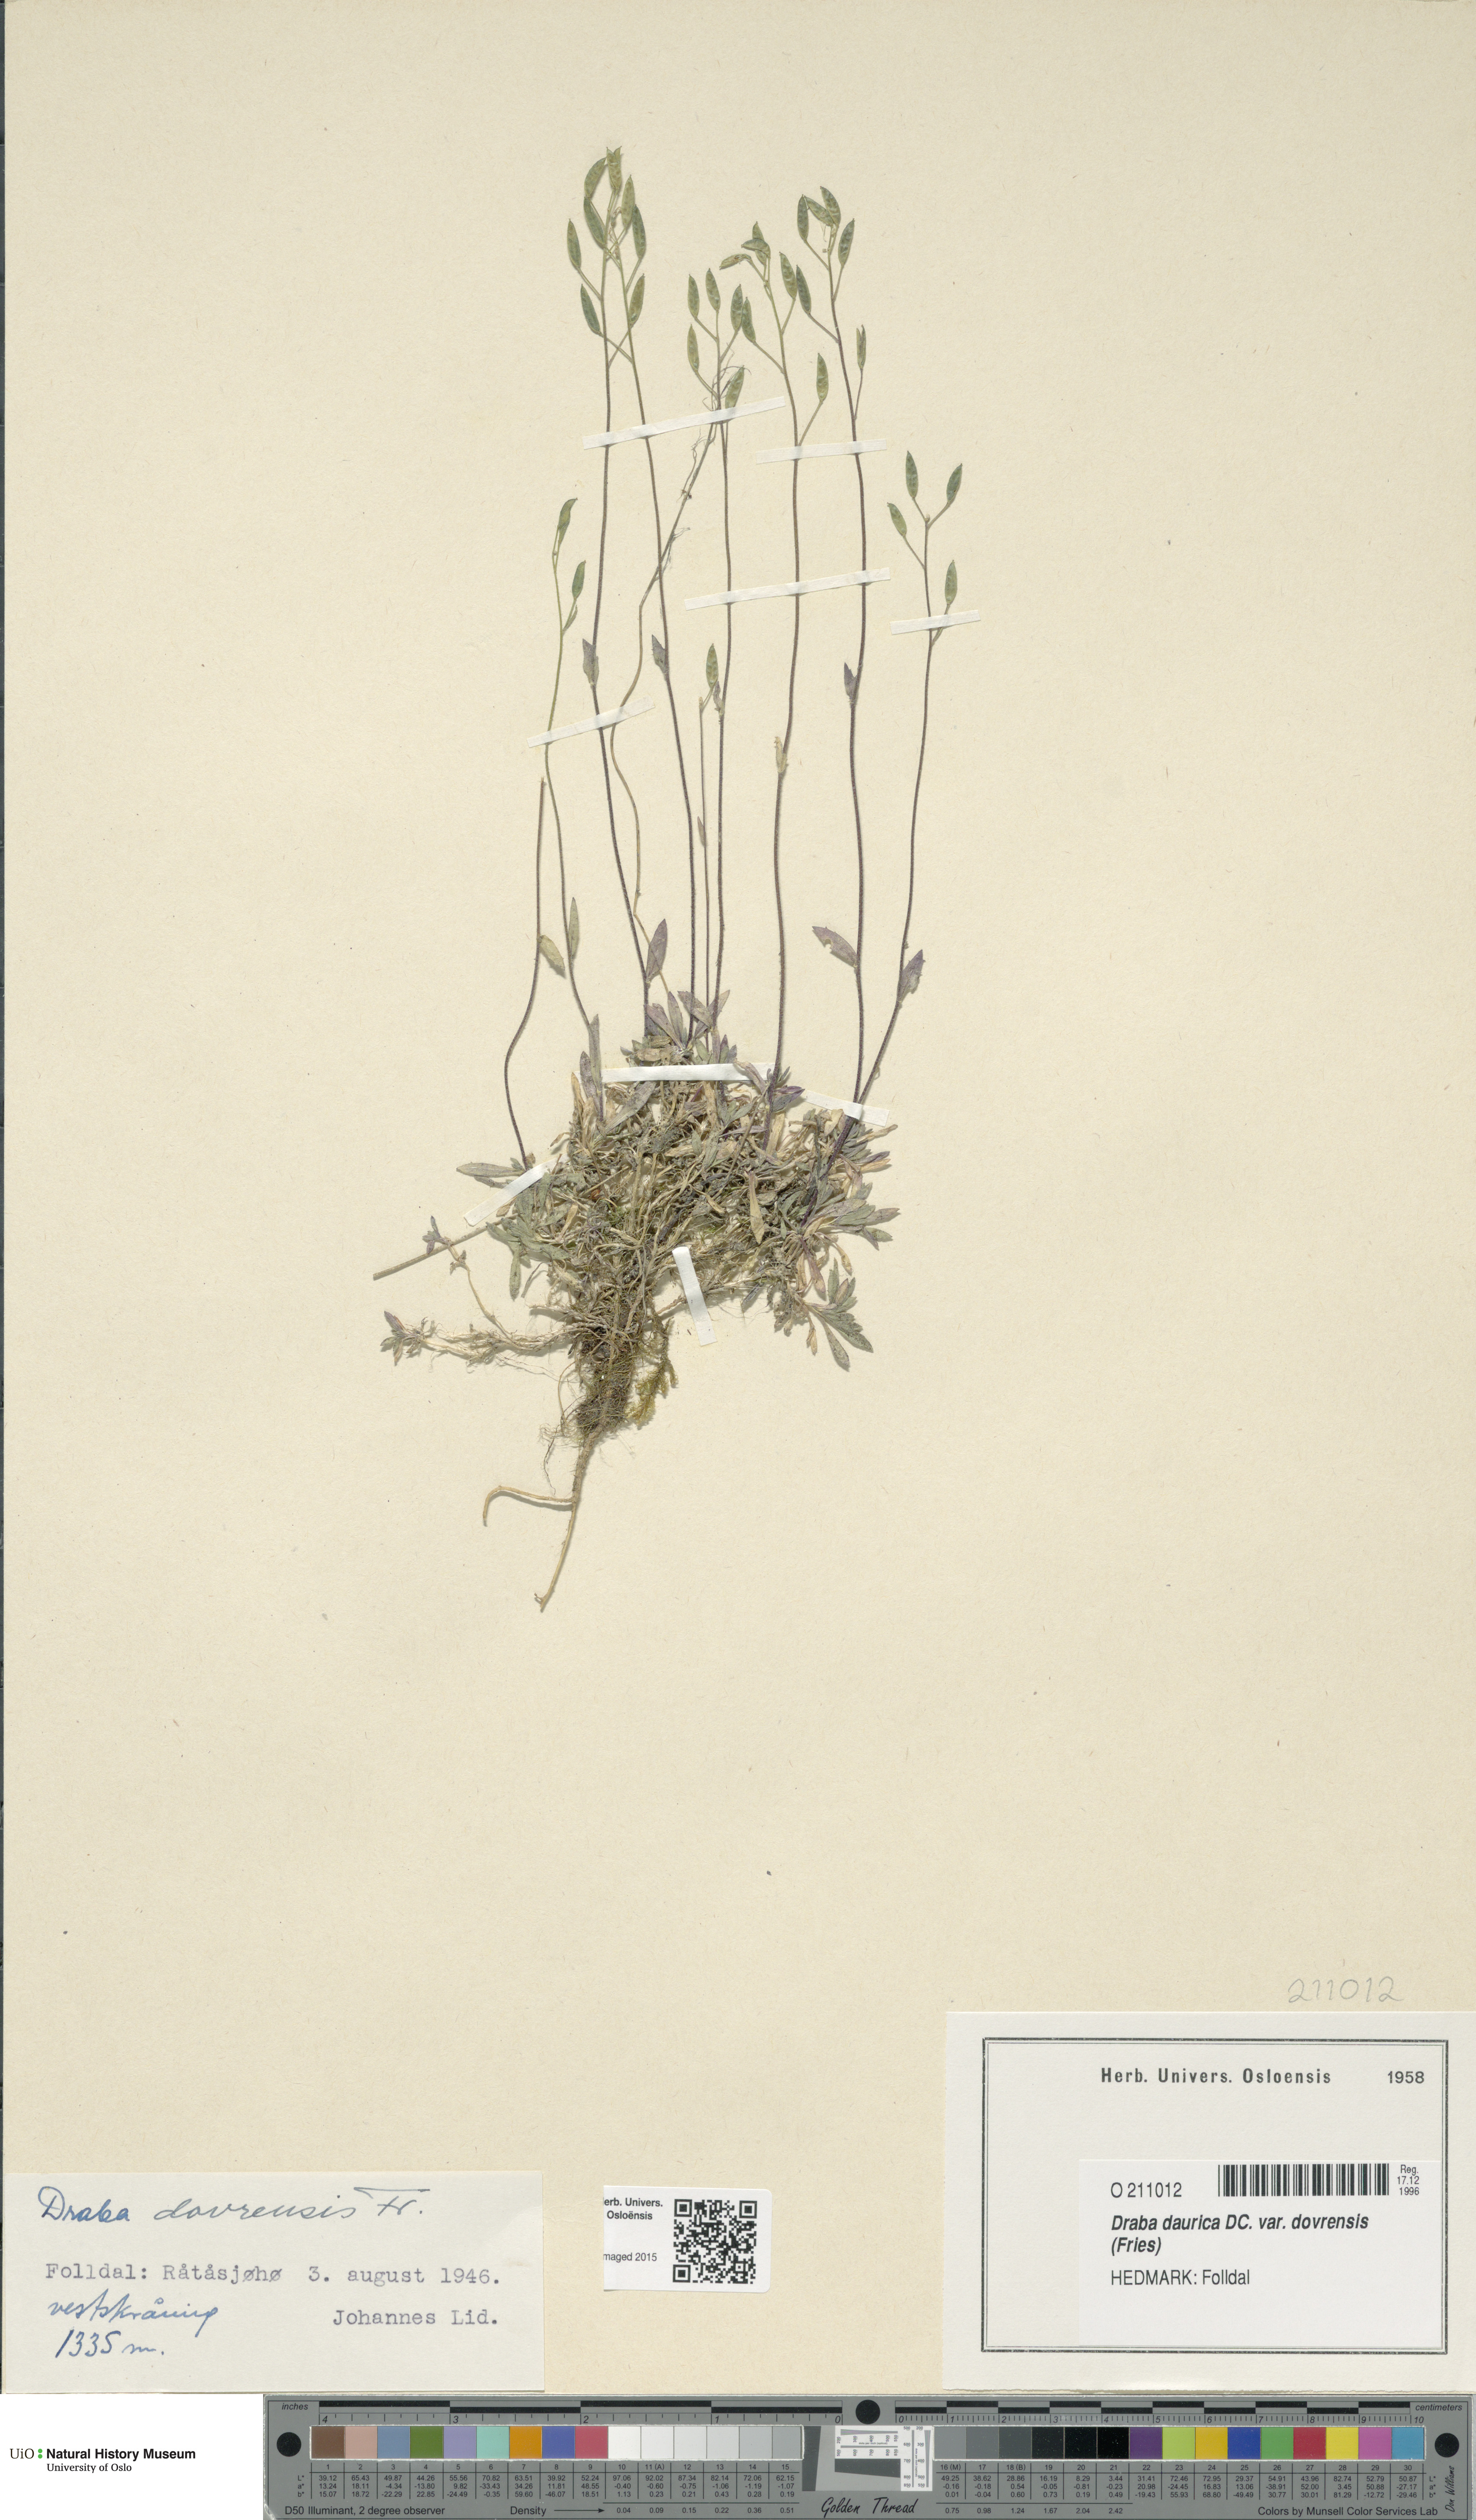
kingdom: Plantae
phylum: Tracheophyta
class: Magnoliopsida
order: Brassicales
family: Brassicaceae
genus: Draba
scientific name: Draba glabella
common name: Glaucous draba
